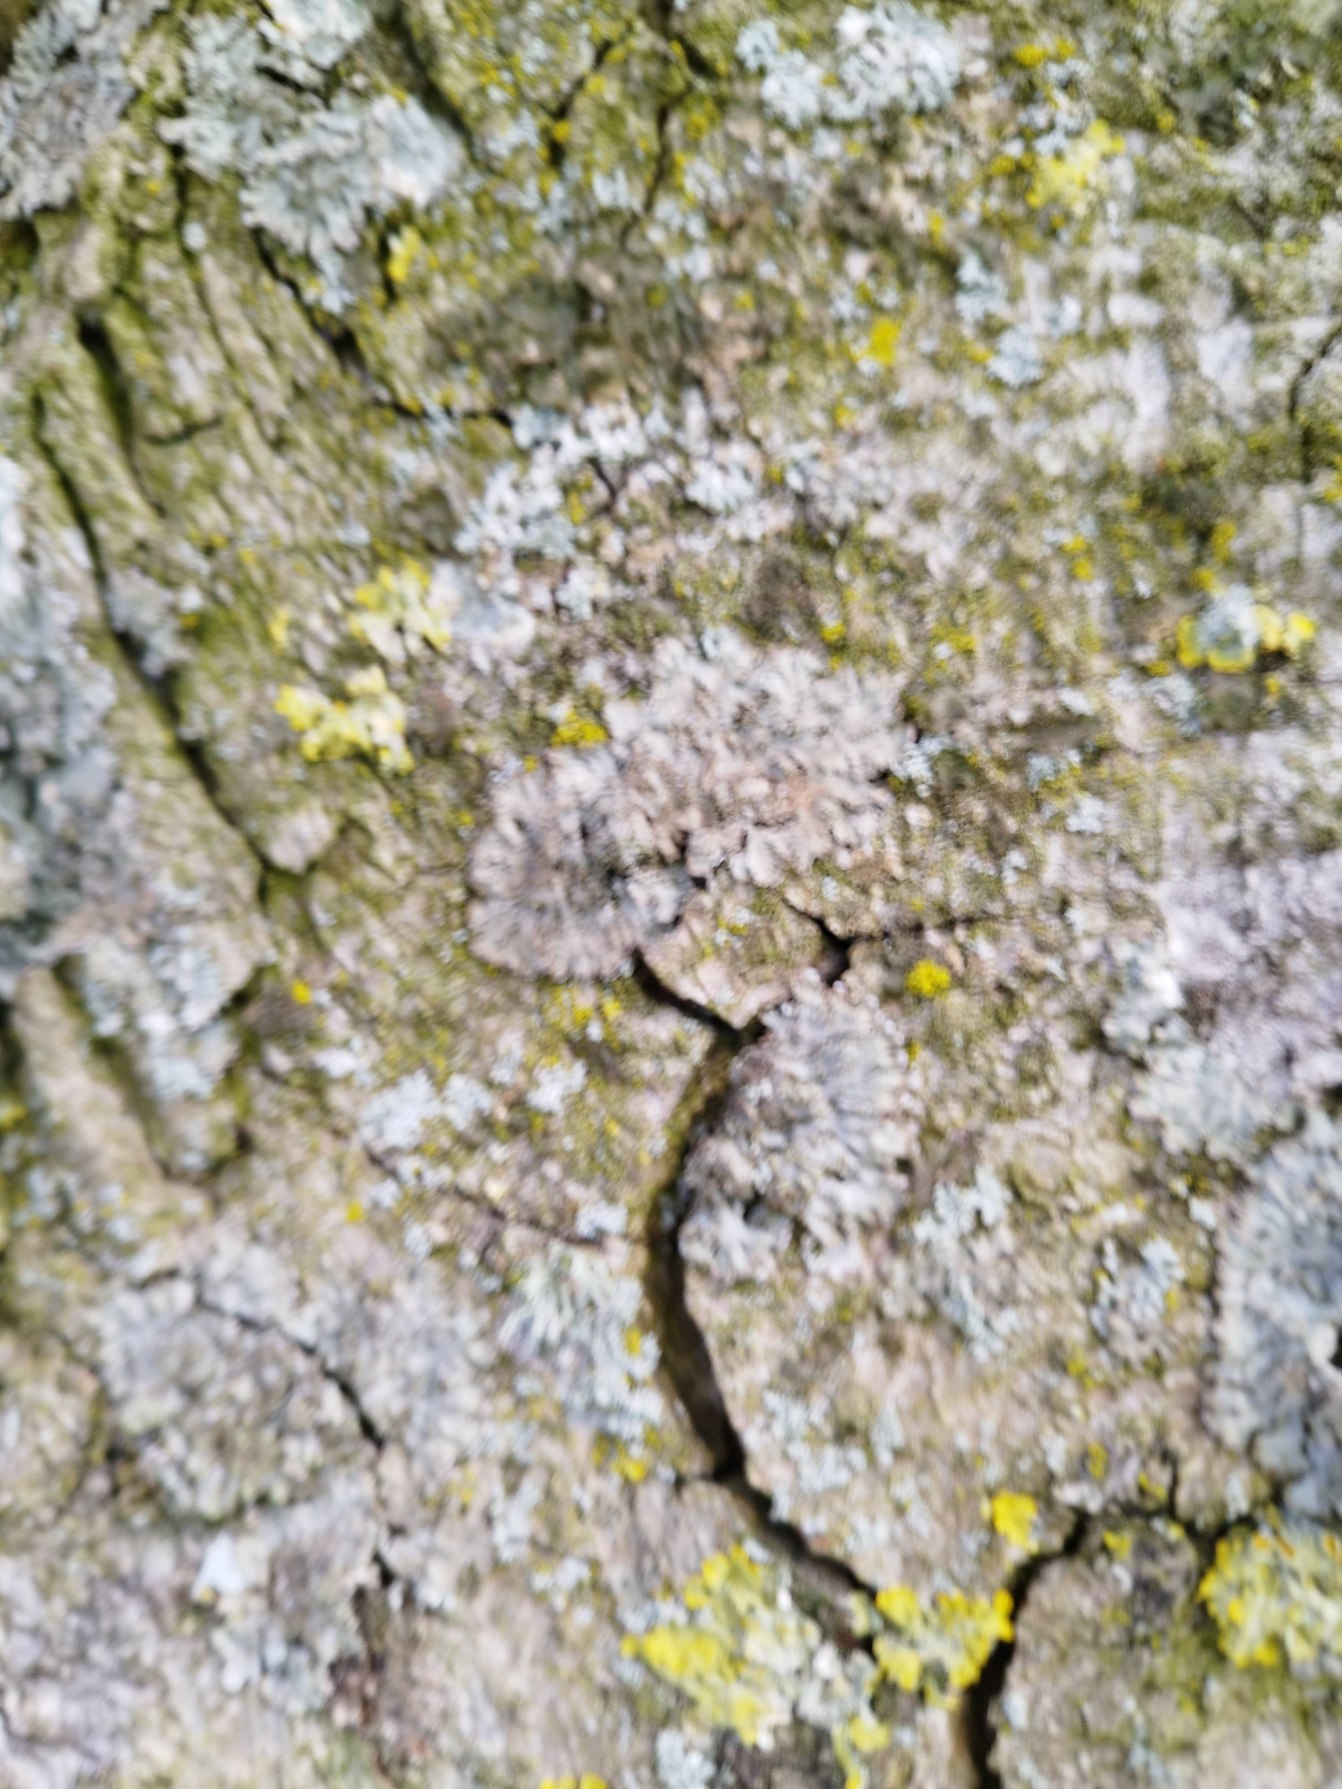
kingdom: Fungi
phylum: Ascomycota
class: Lecanoromycetes
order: Caliciales
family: Physciaceae
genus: Phaeophyscia
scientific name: Phaeophyscia orbicularis
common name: Grågrøn rosetlav
